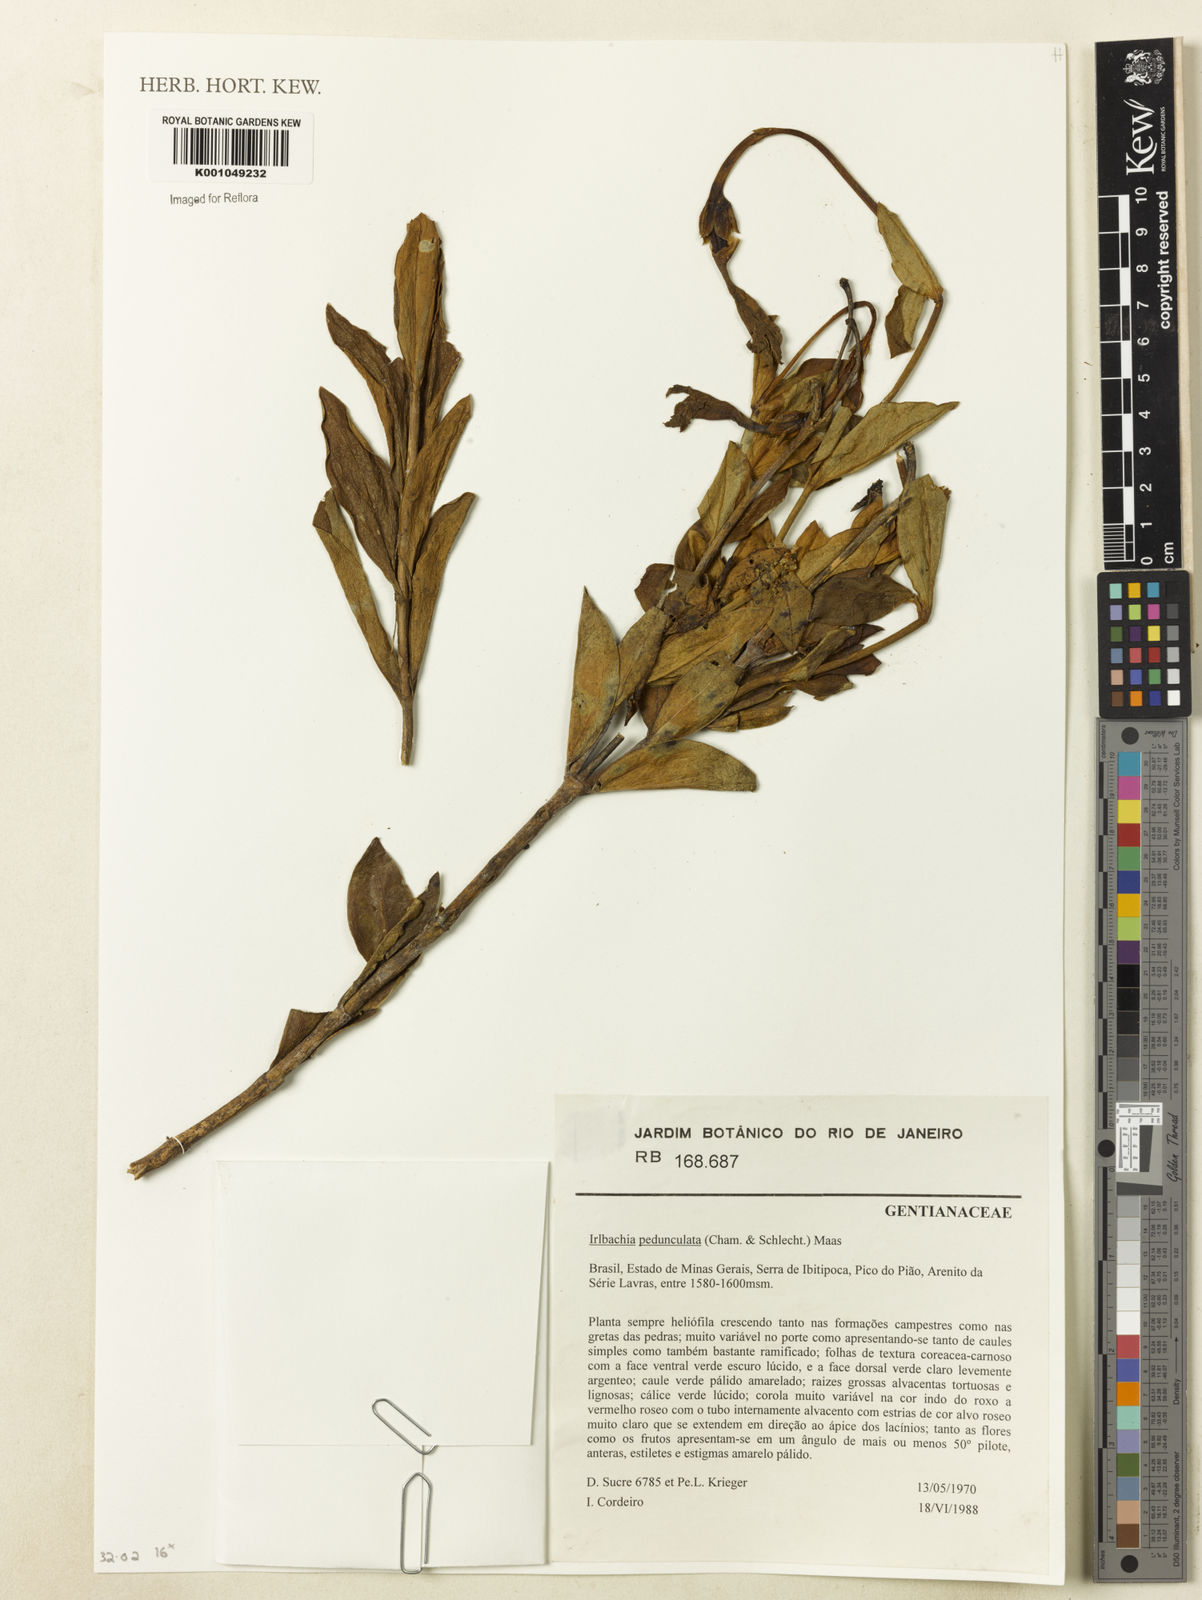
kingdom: Plantae
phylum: Tracheophyta
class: Magnoliopsida
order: Gentianales
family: Gentianaceae
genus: Calolisianthus
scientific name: Calolisianthus pedunculatus
